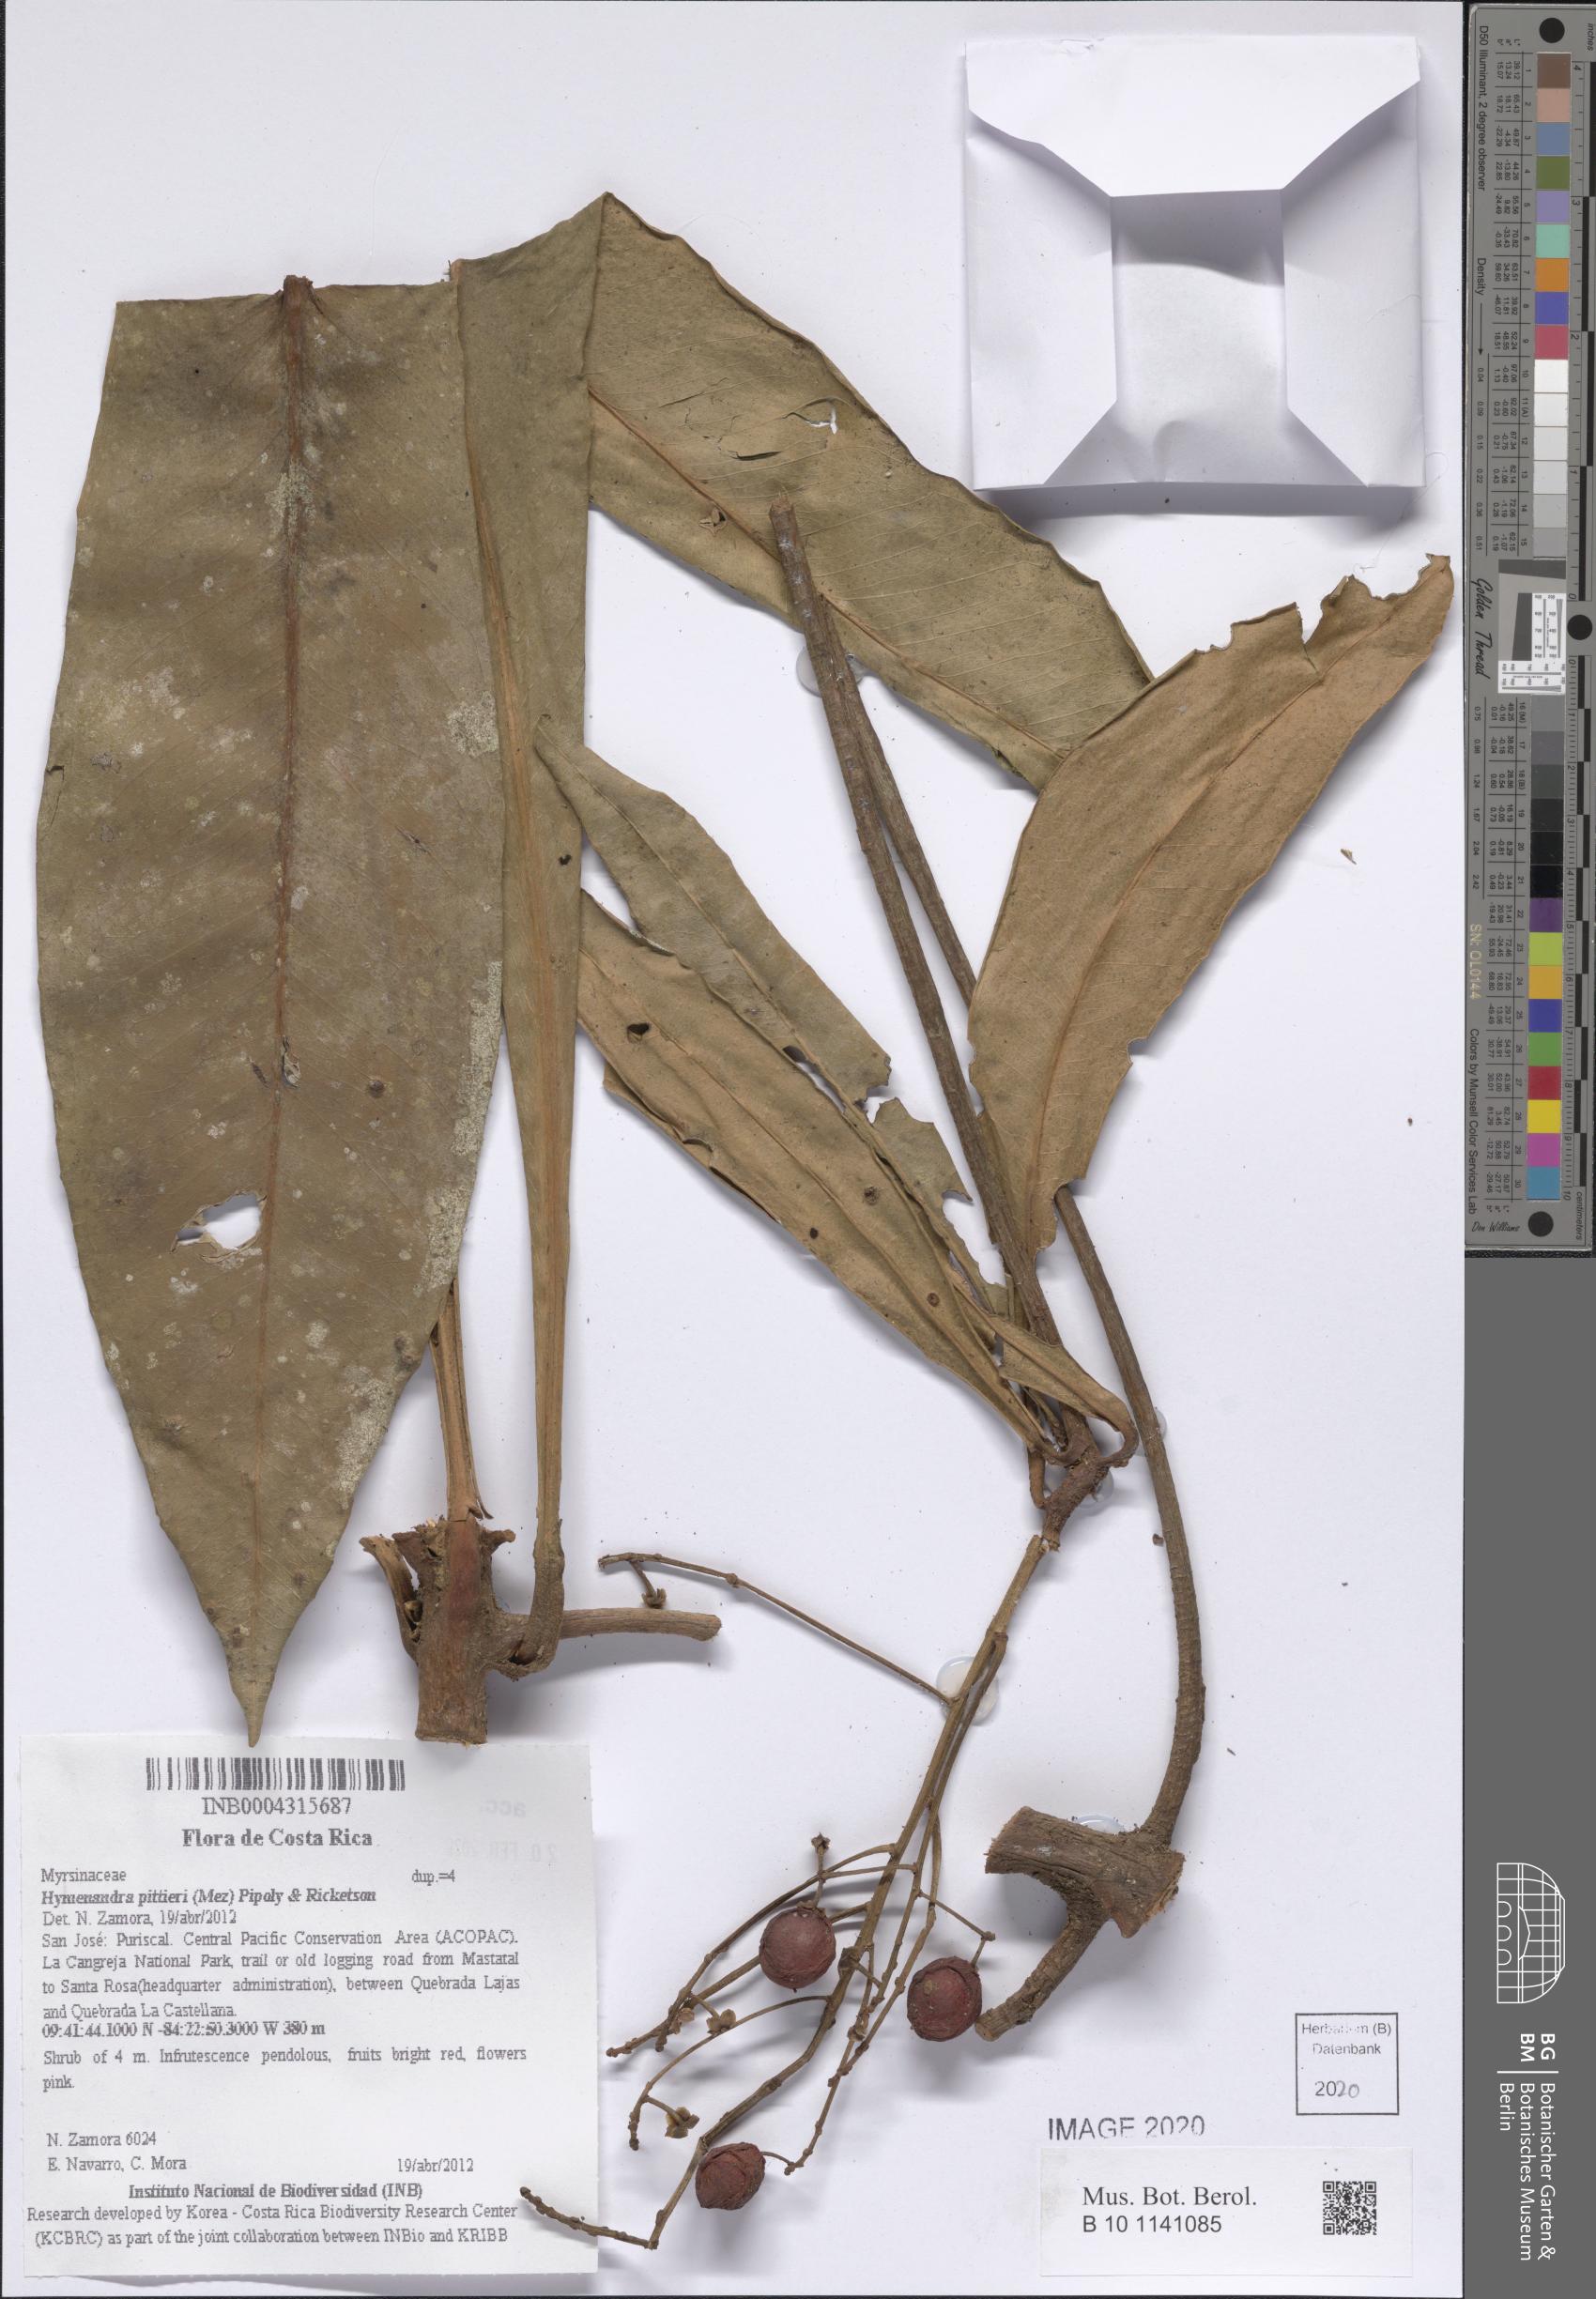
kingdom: Plantae
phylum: Tracheophyta
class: Magnoliopsida
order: Ericales
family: Primulaceae
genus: Hymenandra
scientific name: Hymenandra pittieri
